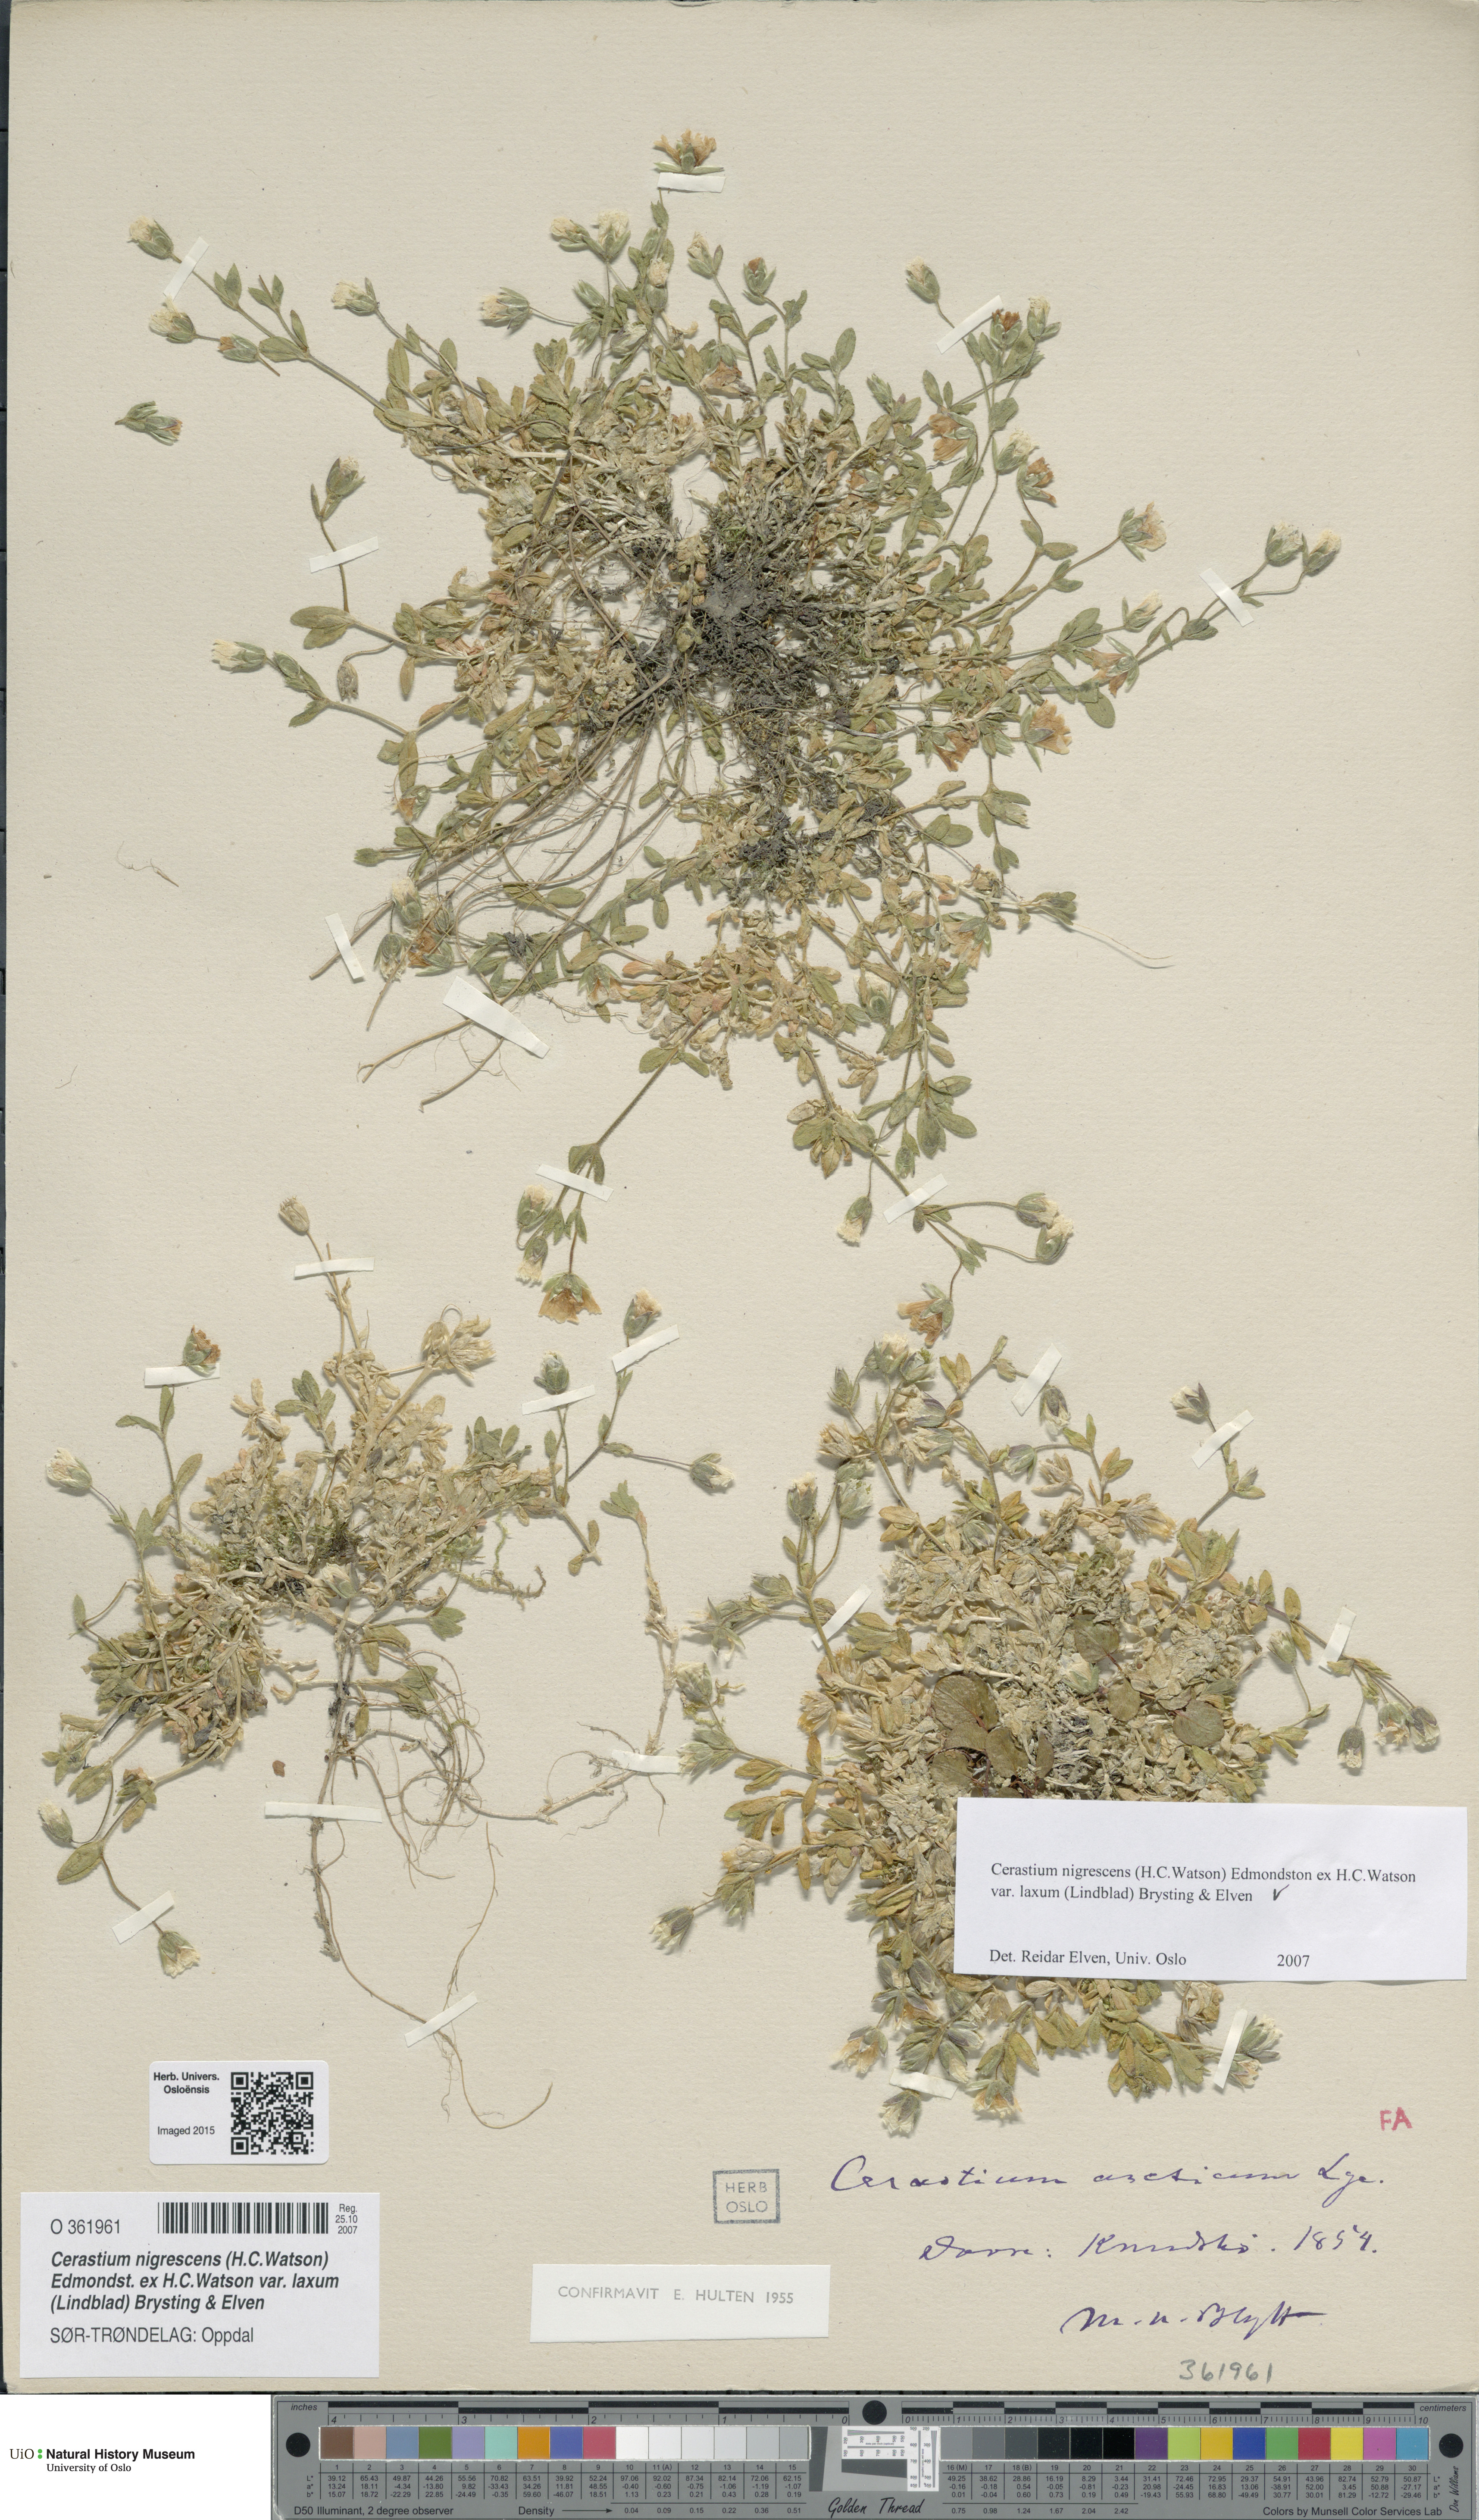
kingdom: Plantae
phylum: Tracheophyta
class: Magnoliopsida
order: Caryophyllales
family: Caryophyllaceae
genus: Cerastium
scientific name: Cerastium nigrescens
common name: Shetland mouse-ear
